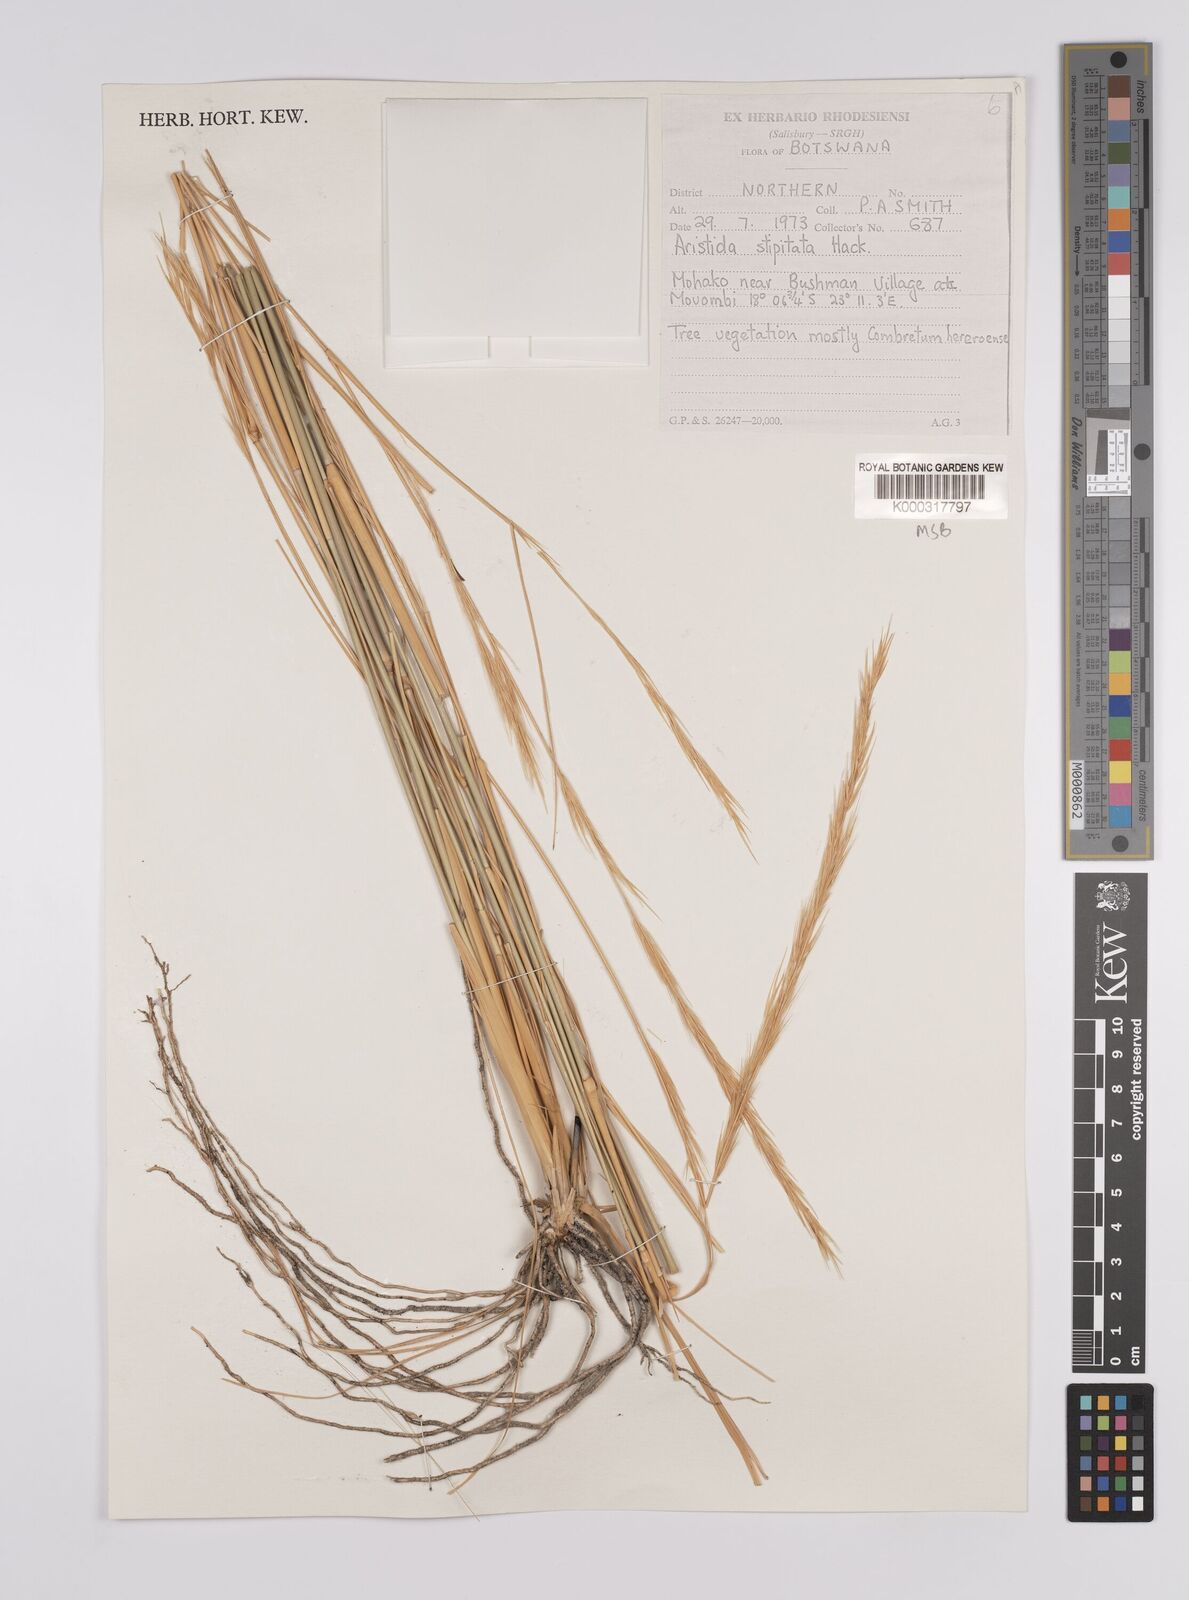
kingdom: Plantae
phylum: Tracheophyta
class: Liliopsida
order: Poales
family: Poaceae
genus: Aristida
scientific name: Aristida stipitata
